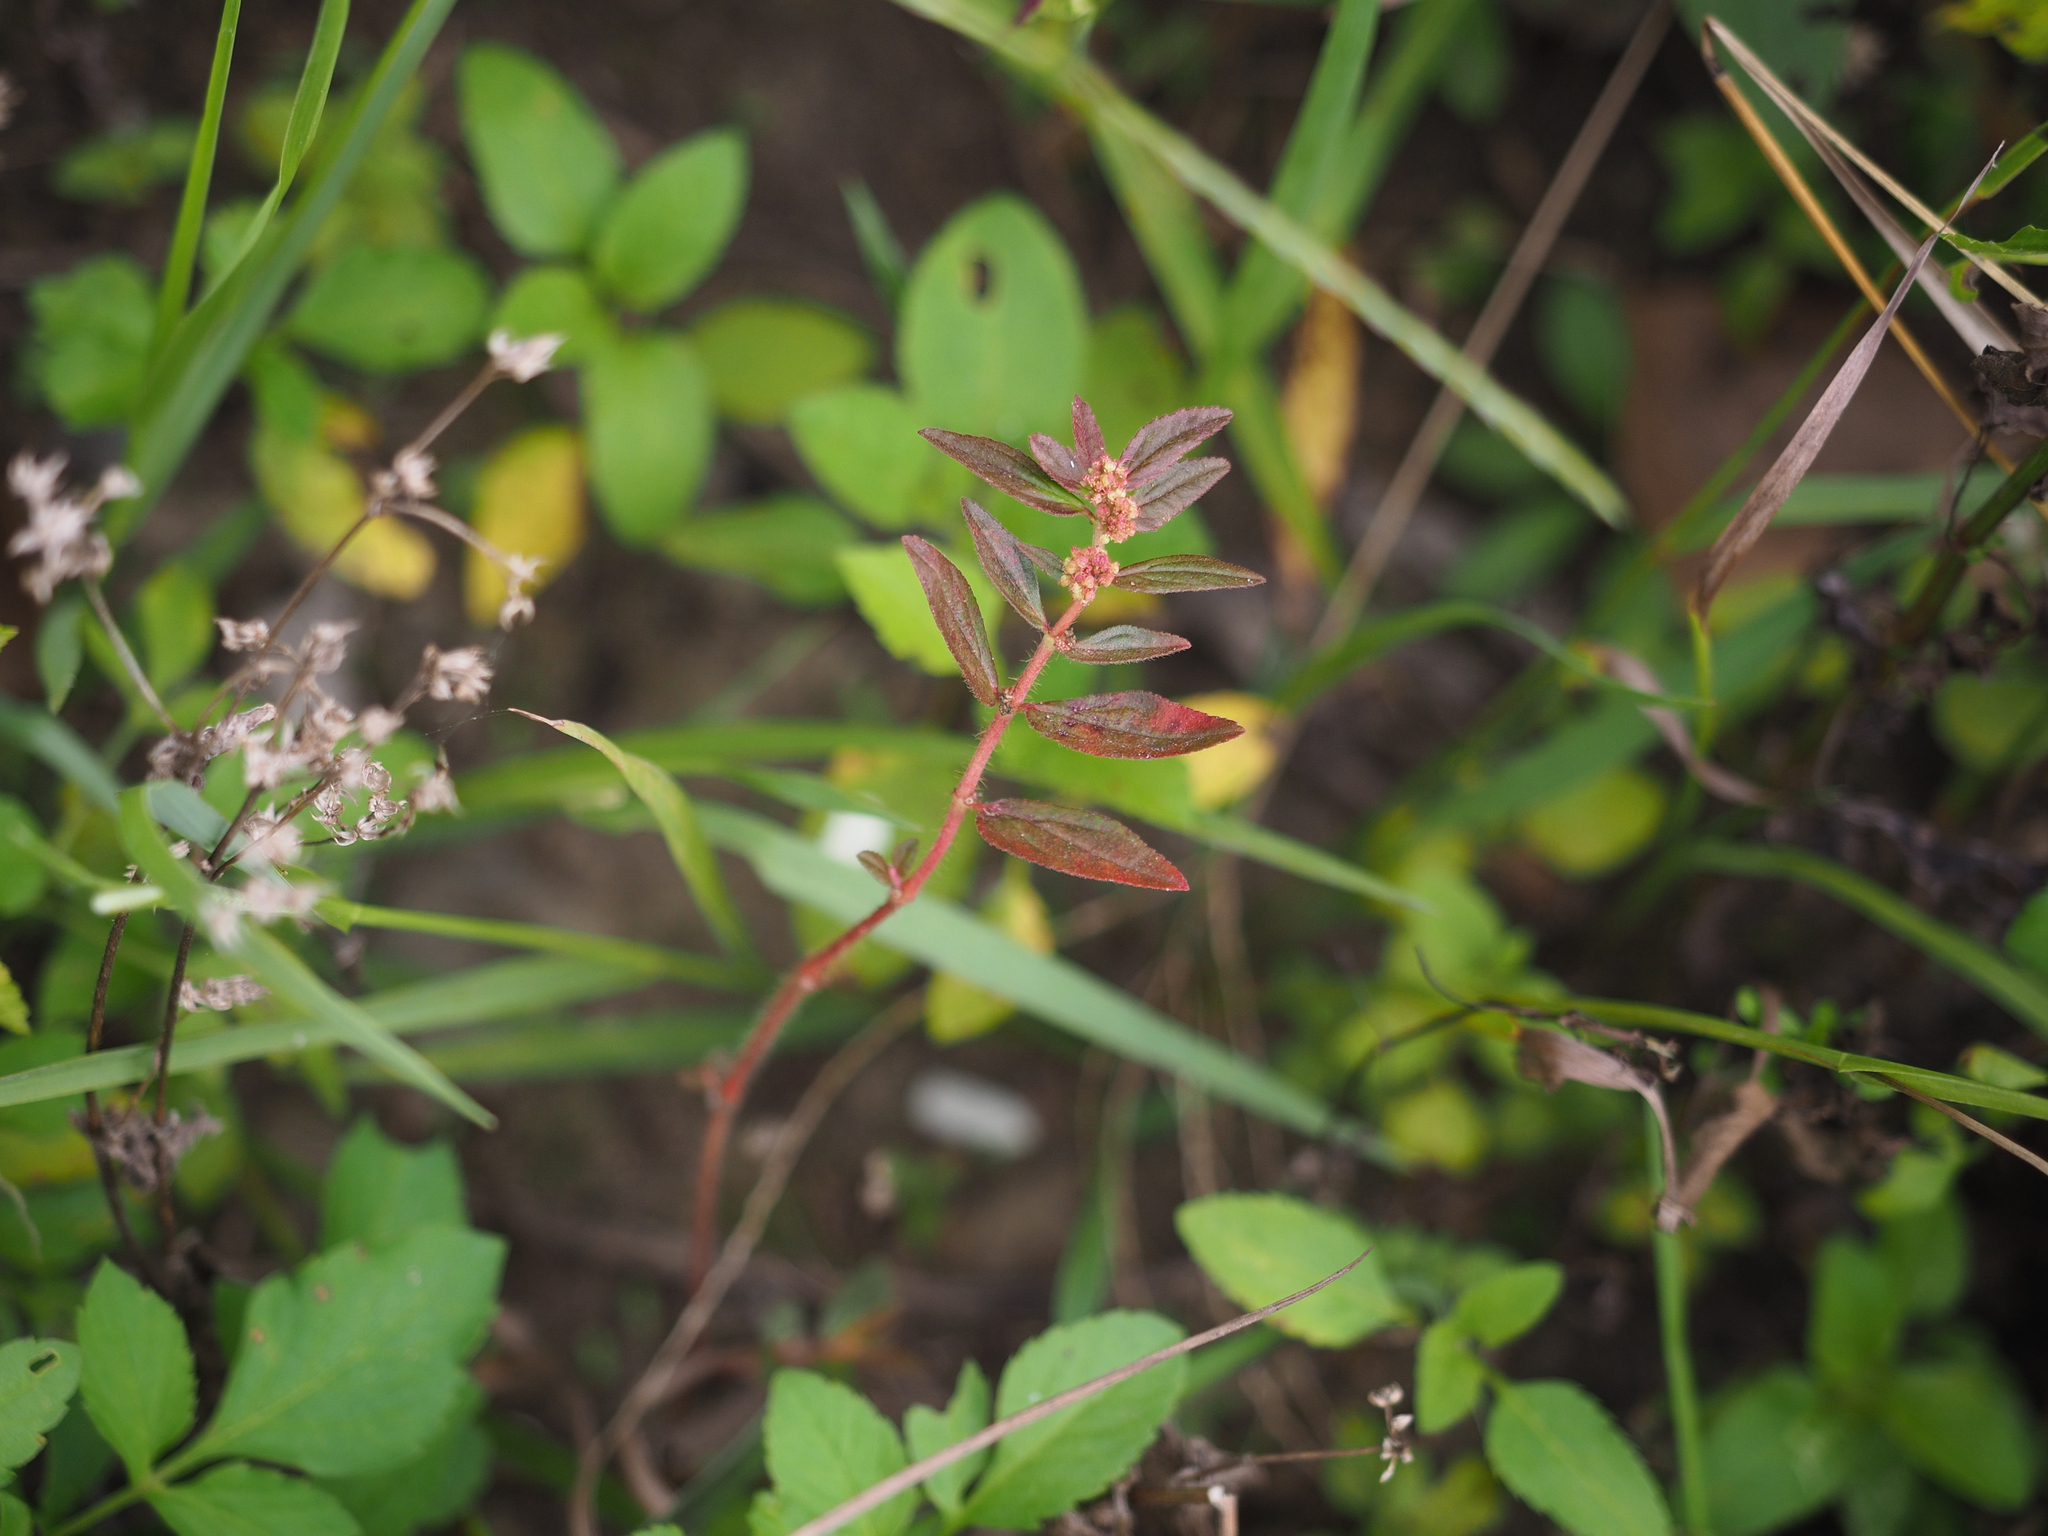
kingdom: Plantae
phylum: Tracheophyta
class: Magnoliopsida
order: Malpighiales
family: Euphorbiaceae
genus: Euphorbia
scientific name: Euphorbia hirta
